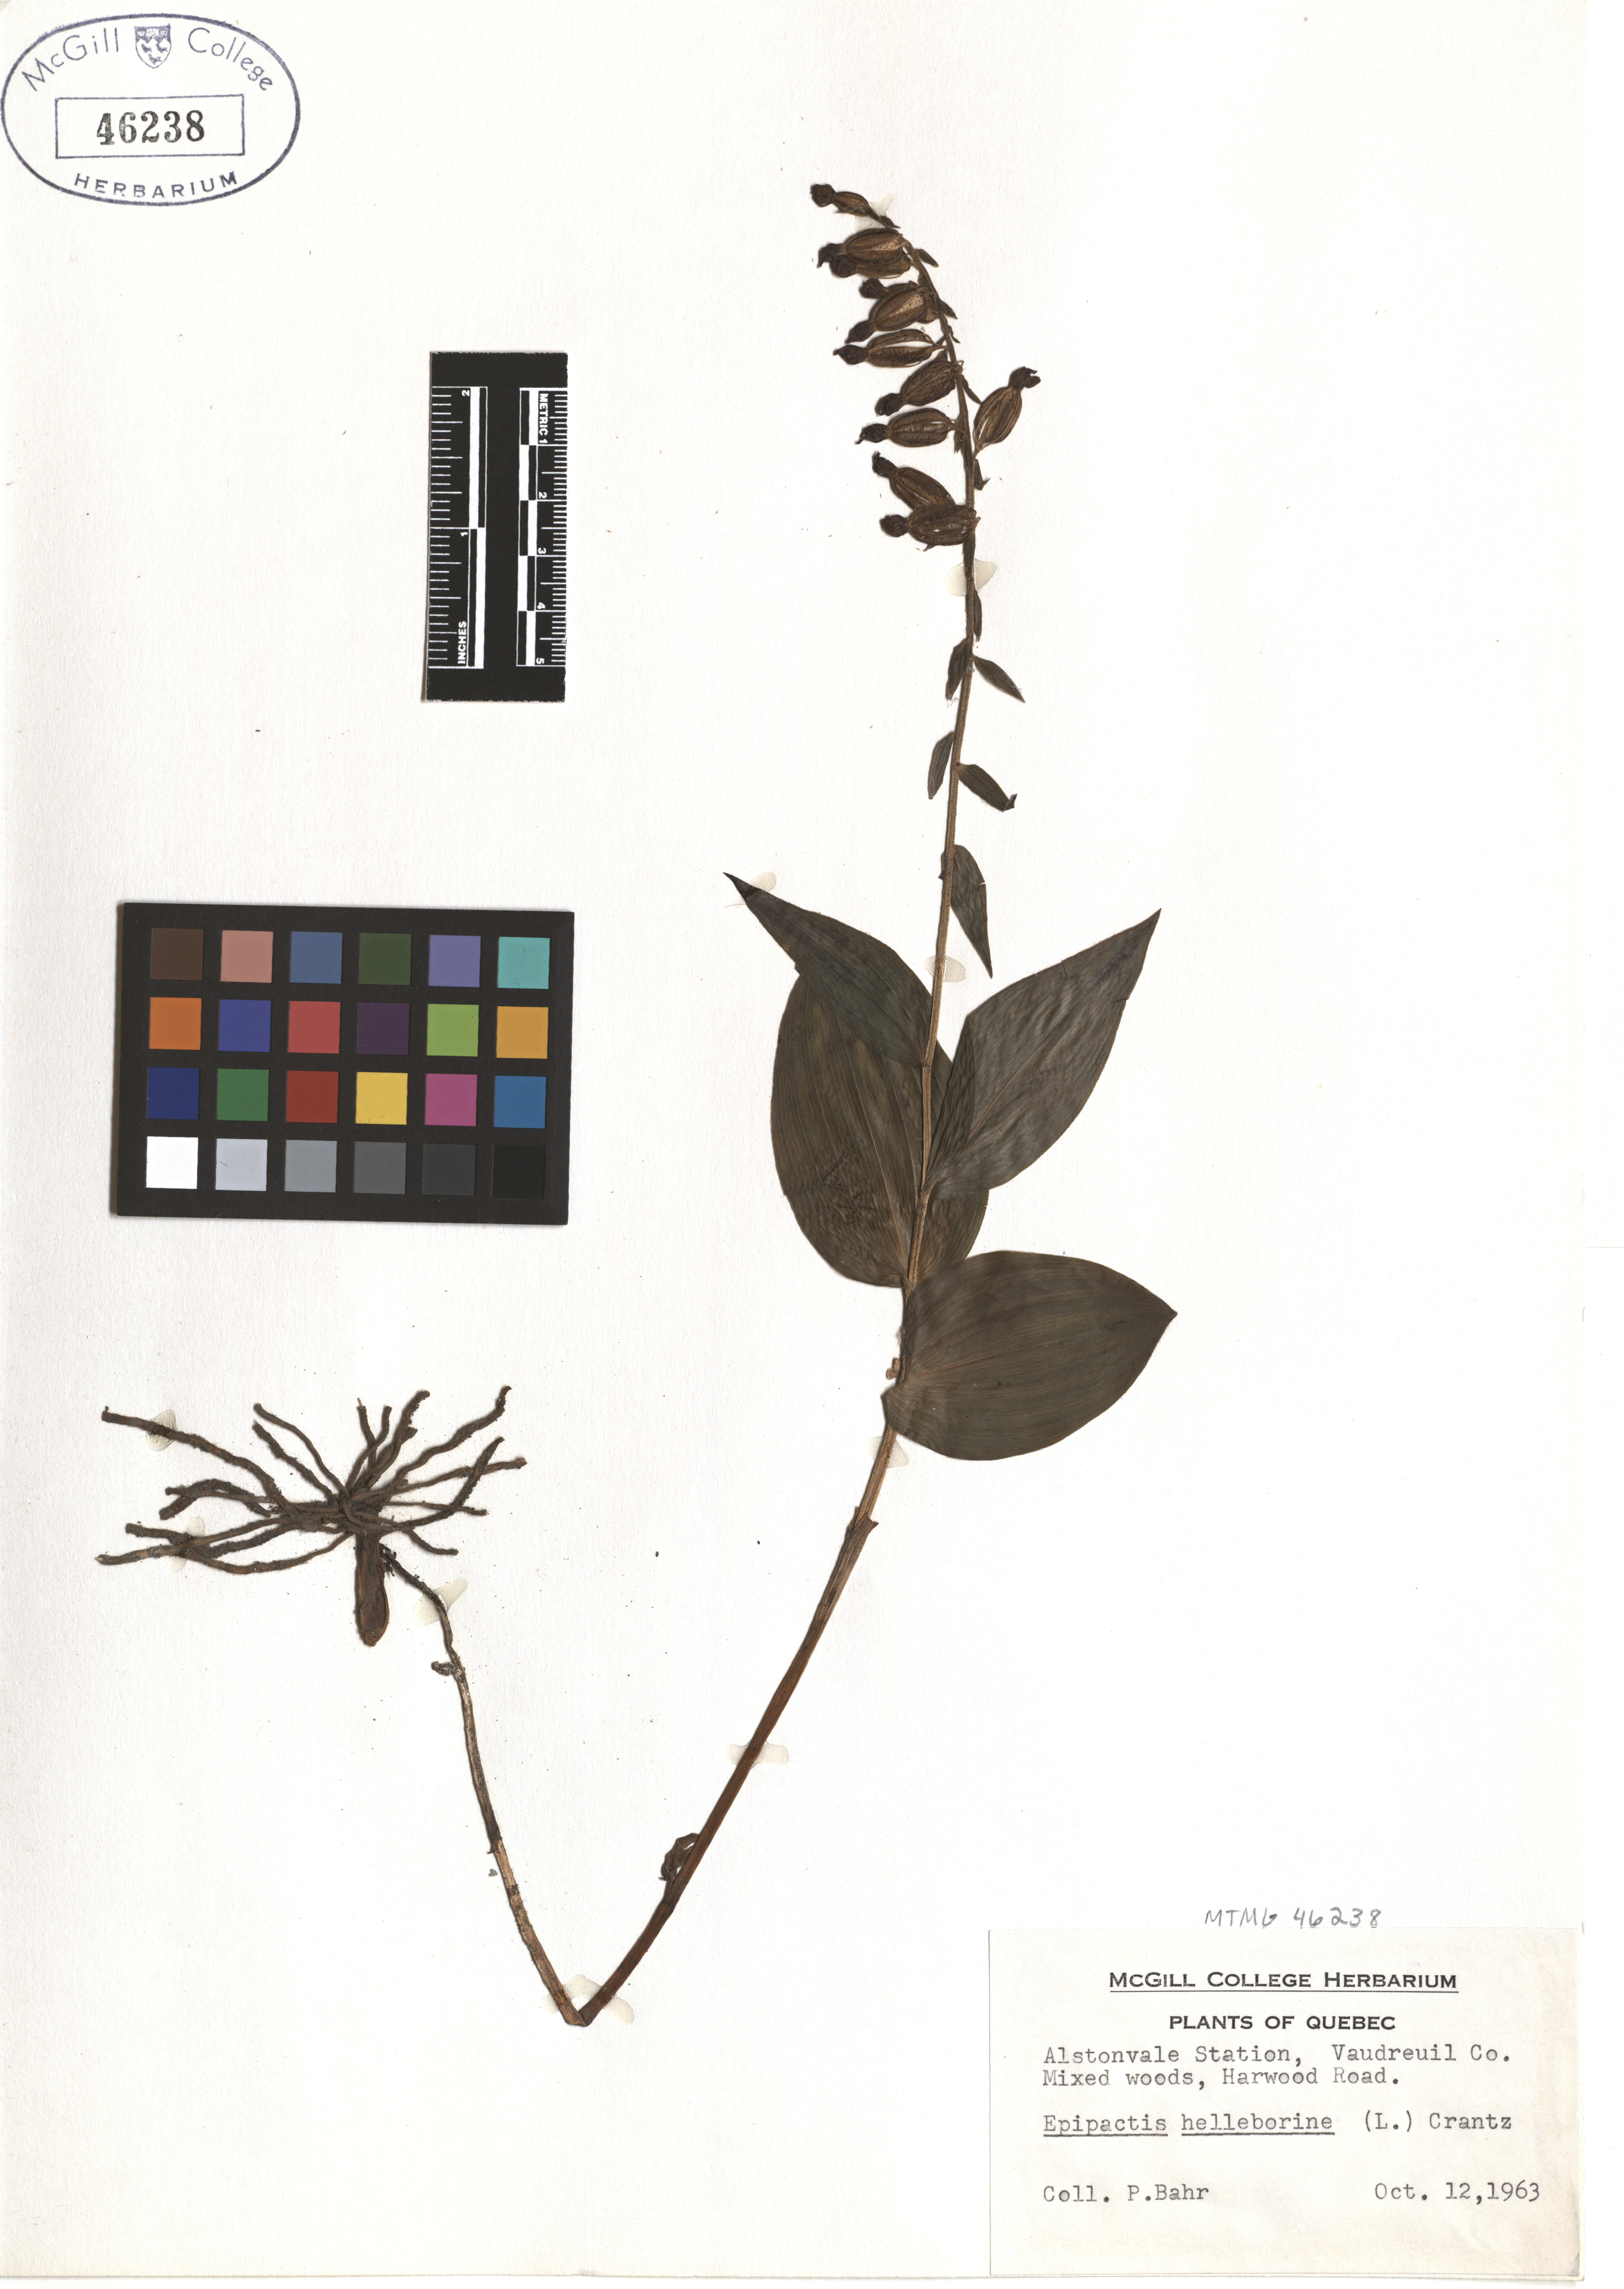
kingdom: Plantae
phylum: Tracheophyta
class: Liliopsida
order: Asparagales
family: Orchidaceae
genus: Epipactis
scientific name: Epipactis helleborine
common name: Broad-leaved helleborine
